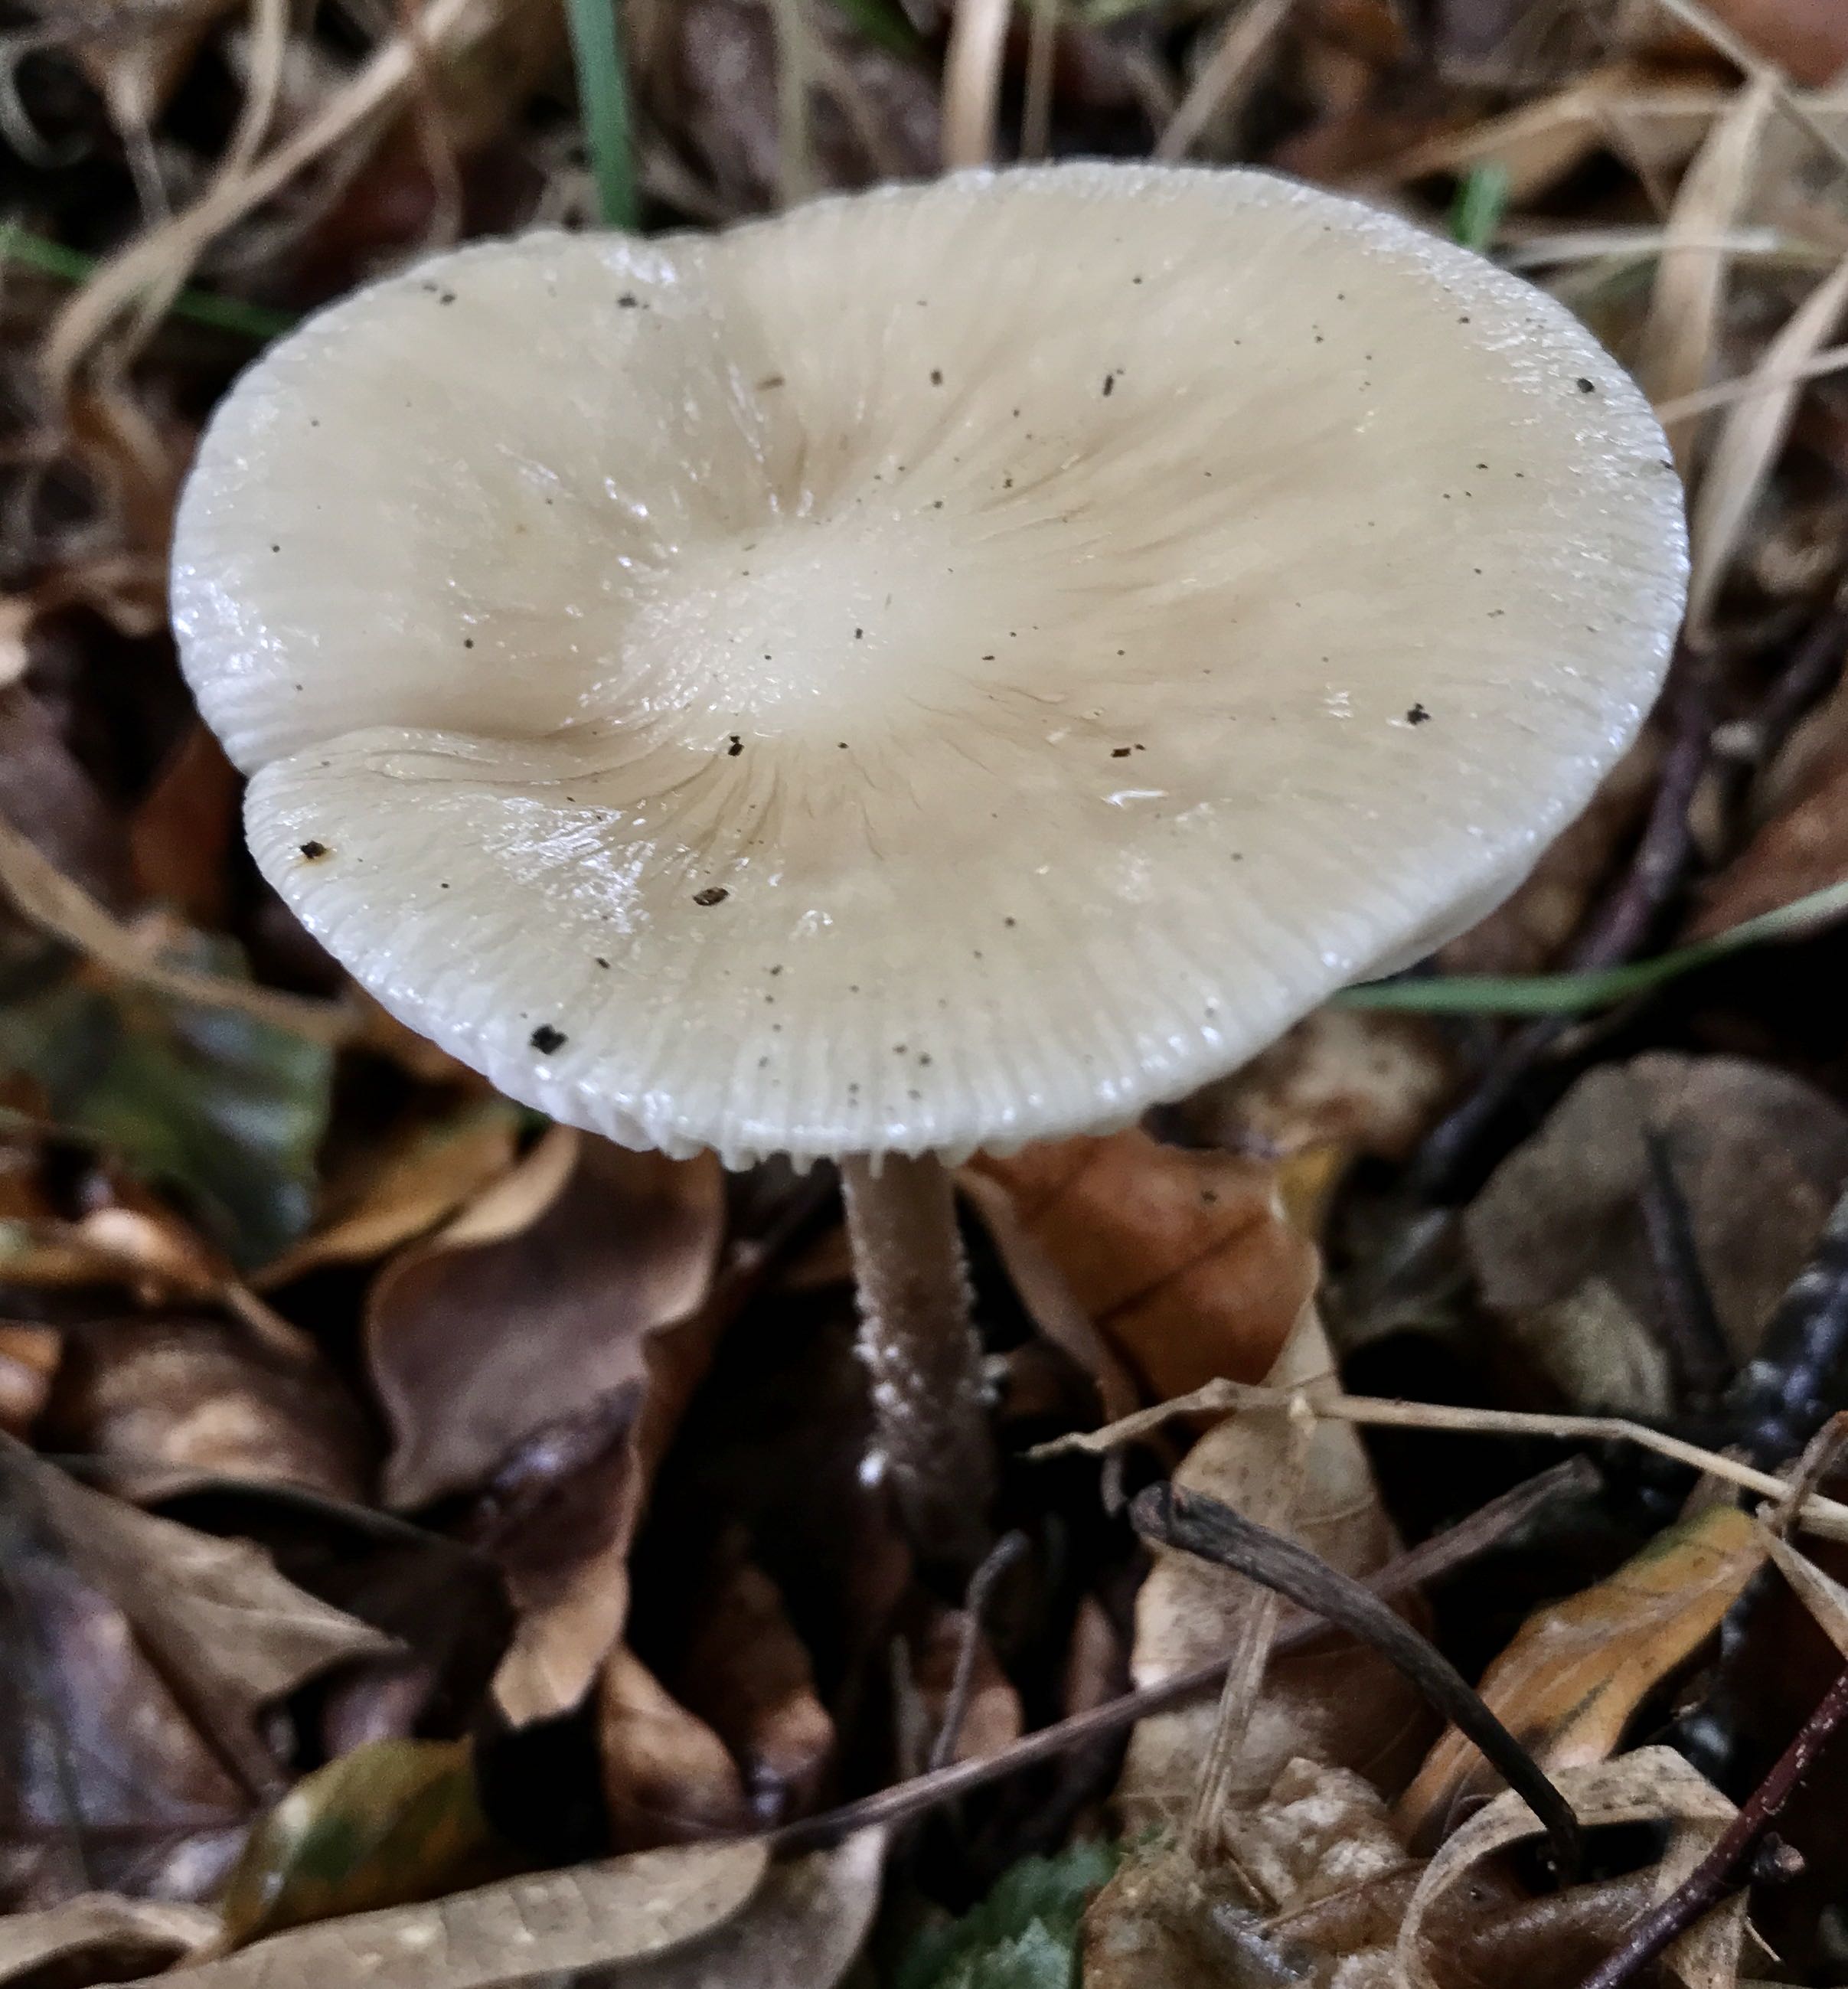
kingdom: Fungi
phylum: Basidiomycota
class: Agaricomycetes
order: Agaricales
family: Physalacriaceae
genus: Hymenopellis
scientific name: Hymenopellis radicata
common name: almindelig pælerodshat
